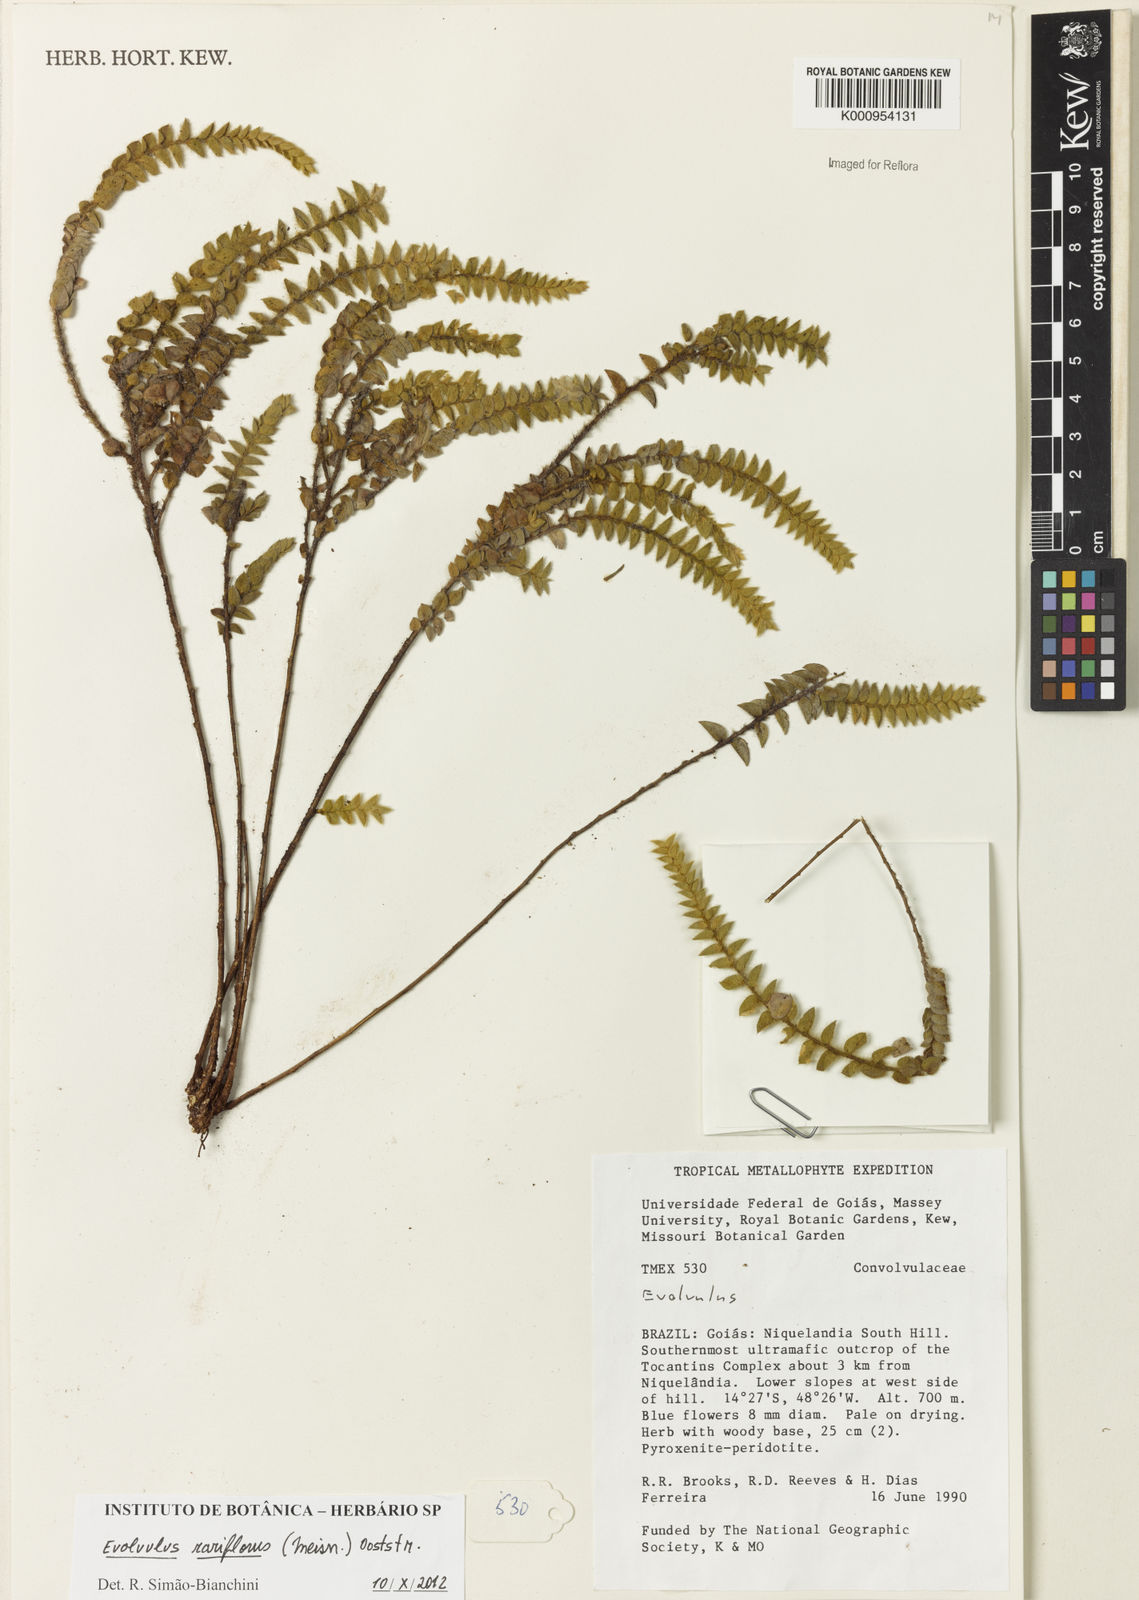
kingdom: Plantae
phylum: Tracheophyta
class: Magnoliopsida
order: Solanales
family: Convolvulaceae
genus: Evolvulus
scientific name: Evolvulus rariflorus
